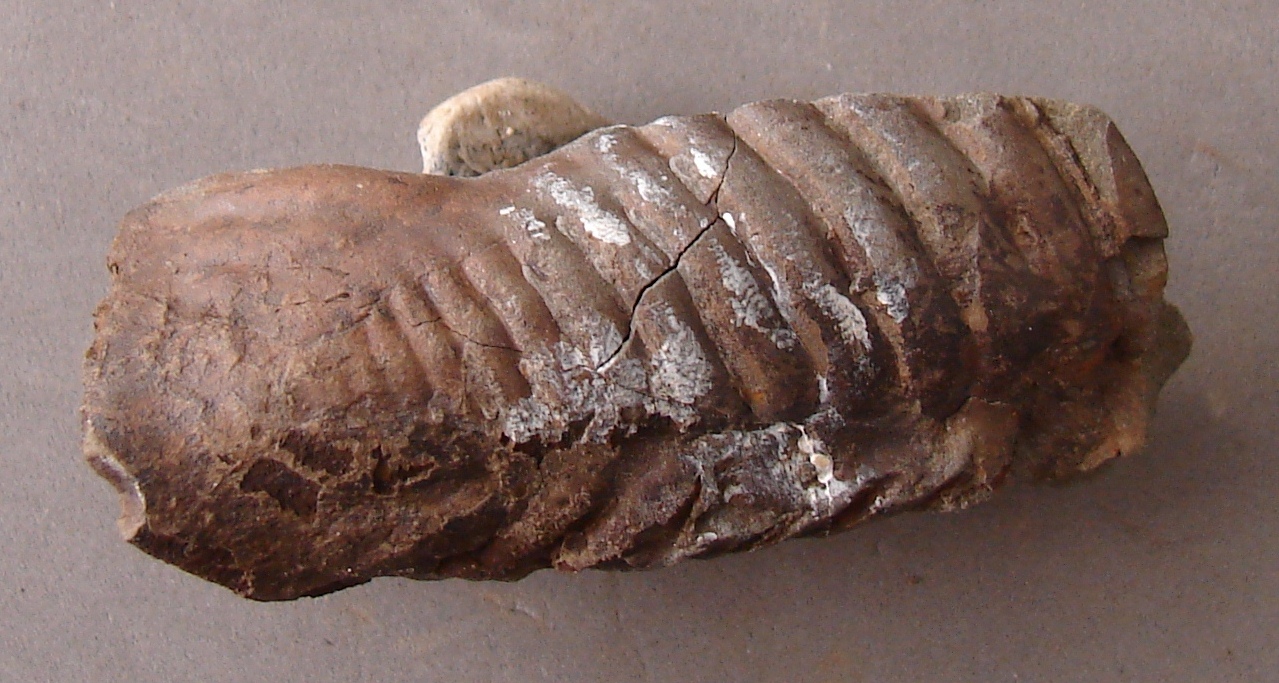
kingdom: Animalia
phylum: Arthropoda
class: Trilobita
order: Phacopida
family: Homalonotidae
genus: Digonus
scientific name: Digonus
